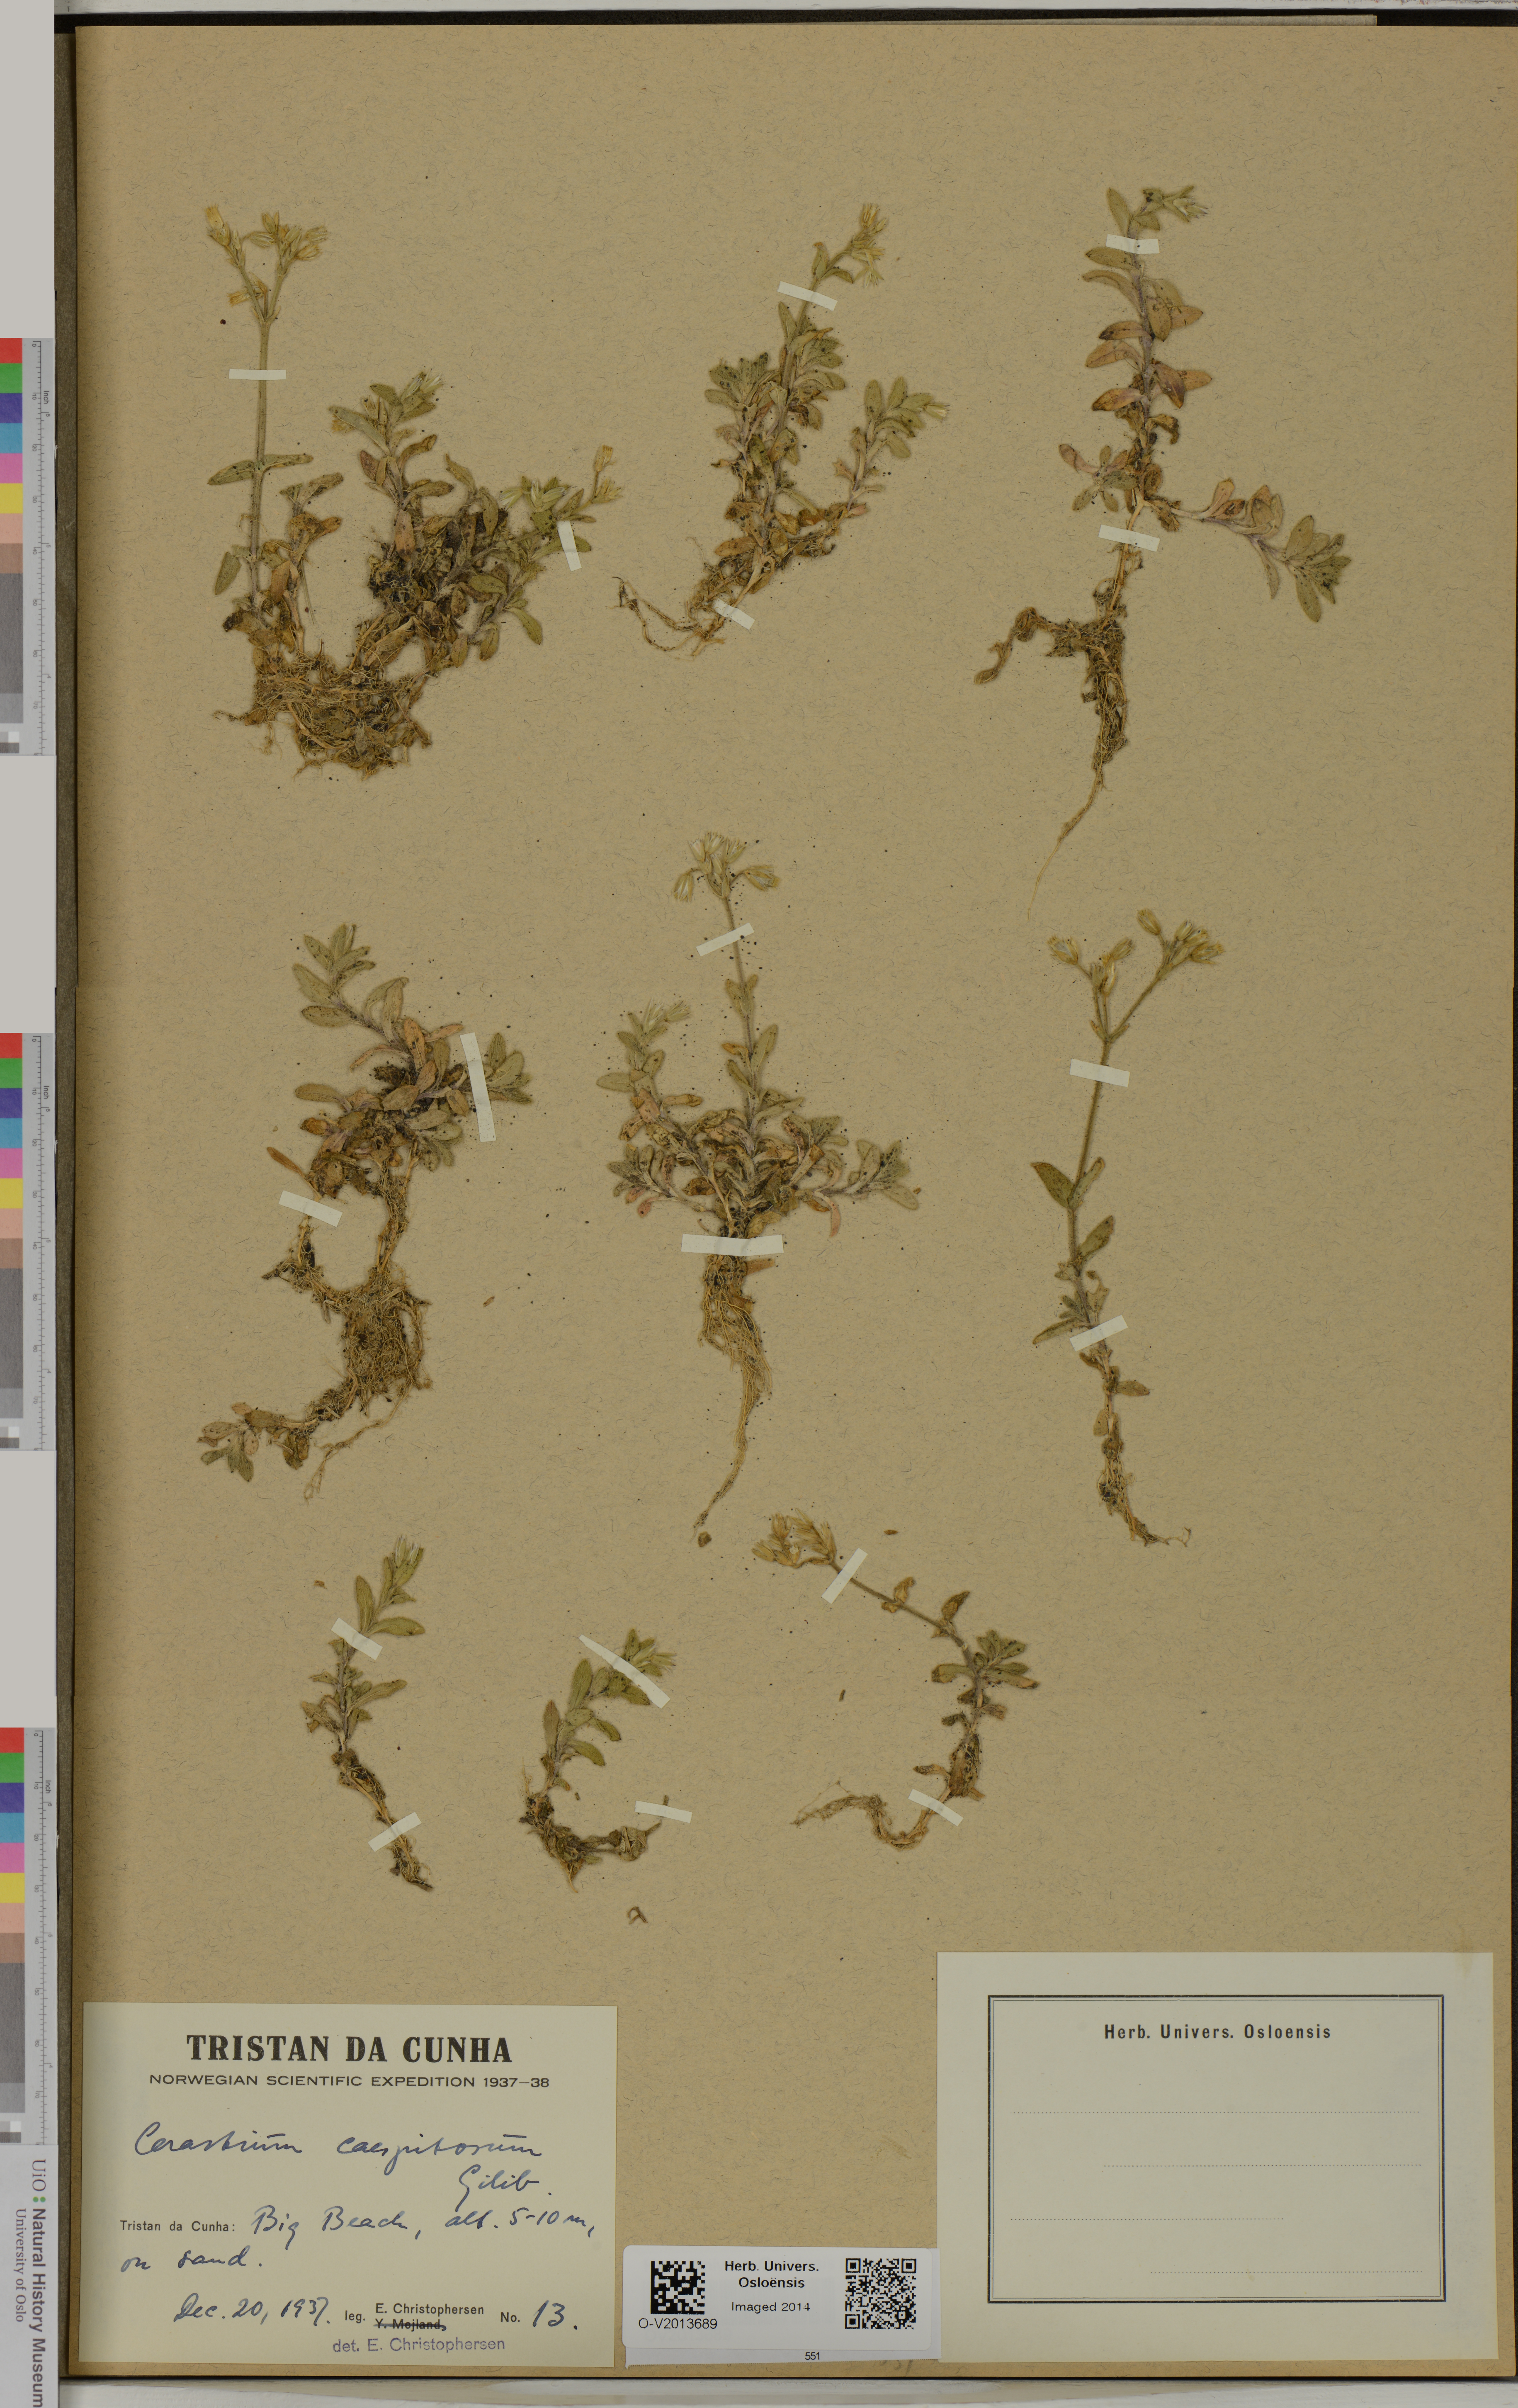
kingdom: Plantae
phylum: Tracheophyta
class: Magnoliopsida
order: Caryophyllales
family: Caryophyllaceae
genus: Cerastium
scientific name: Cerastium holosteoides
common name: Big chickweed
